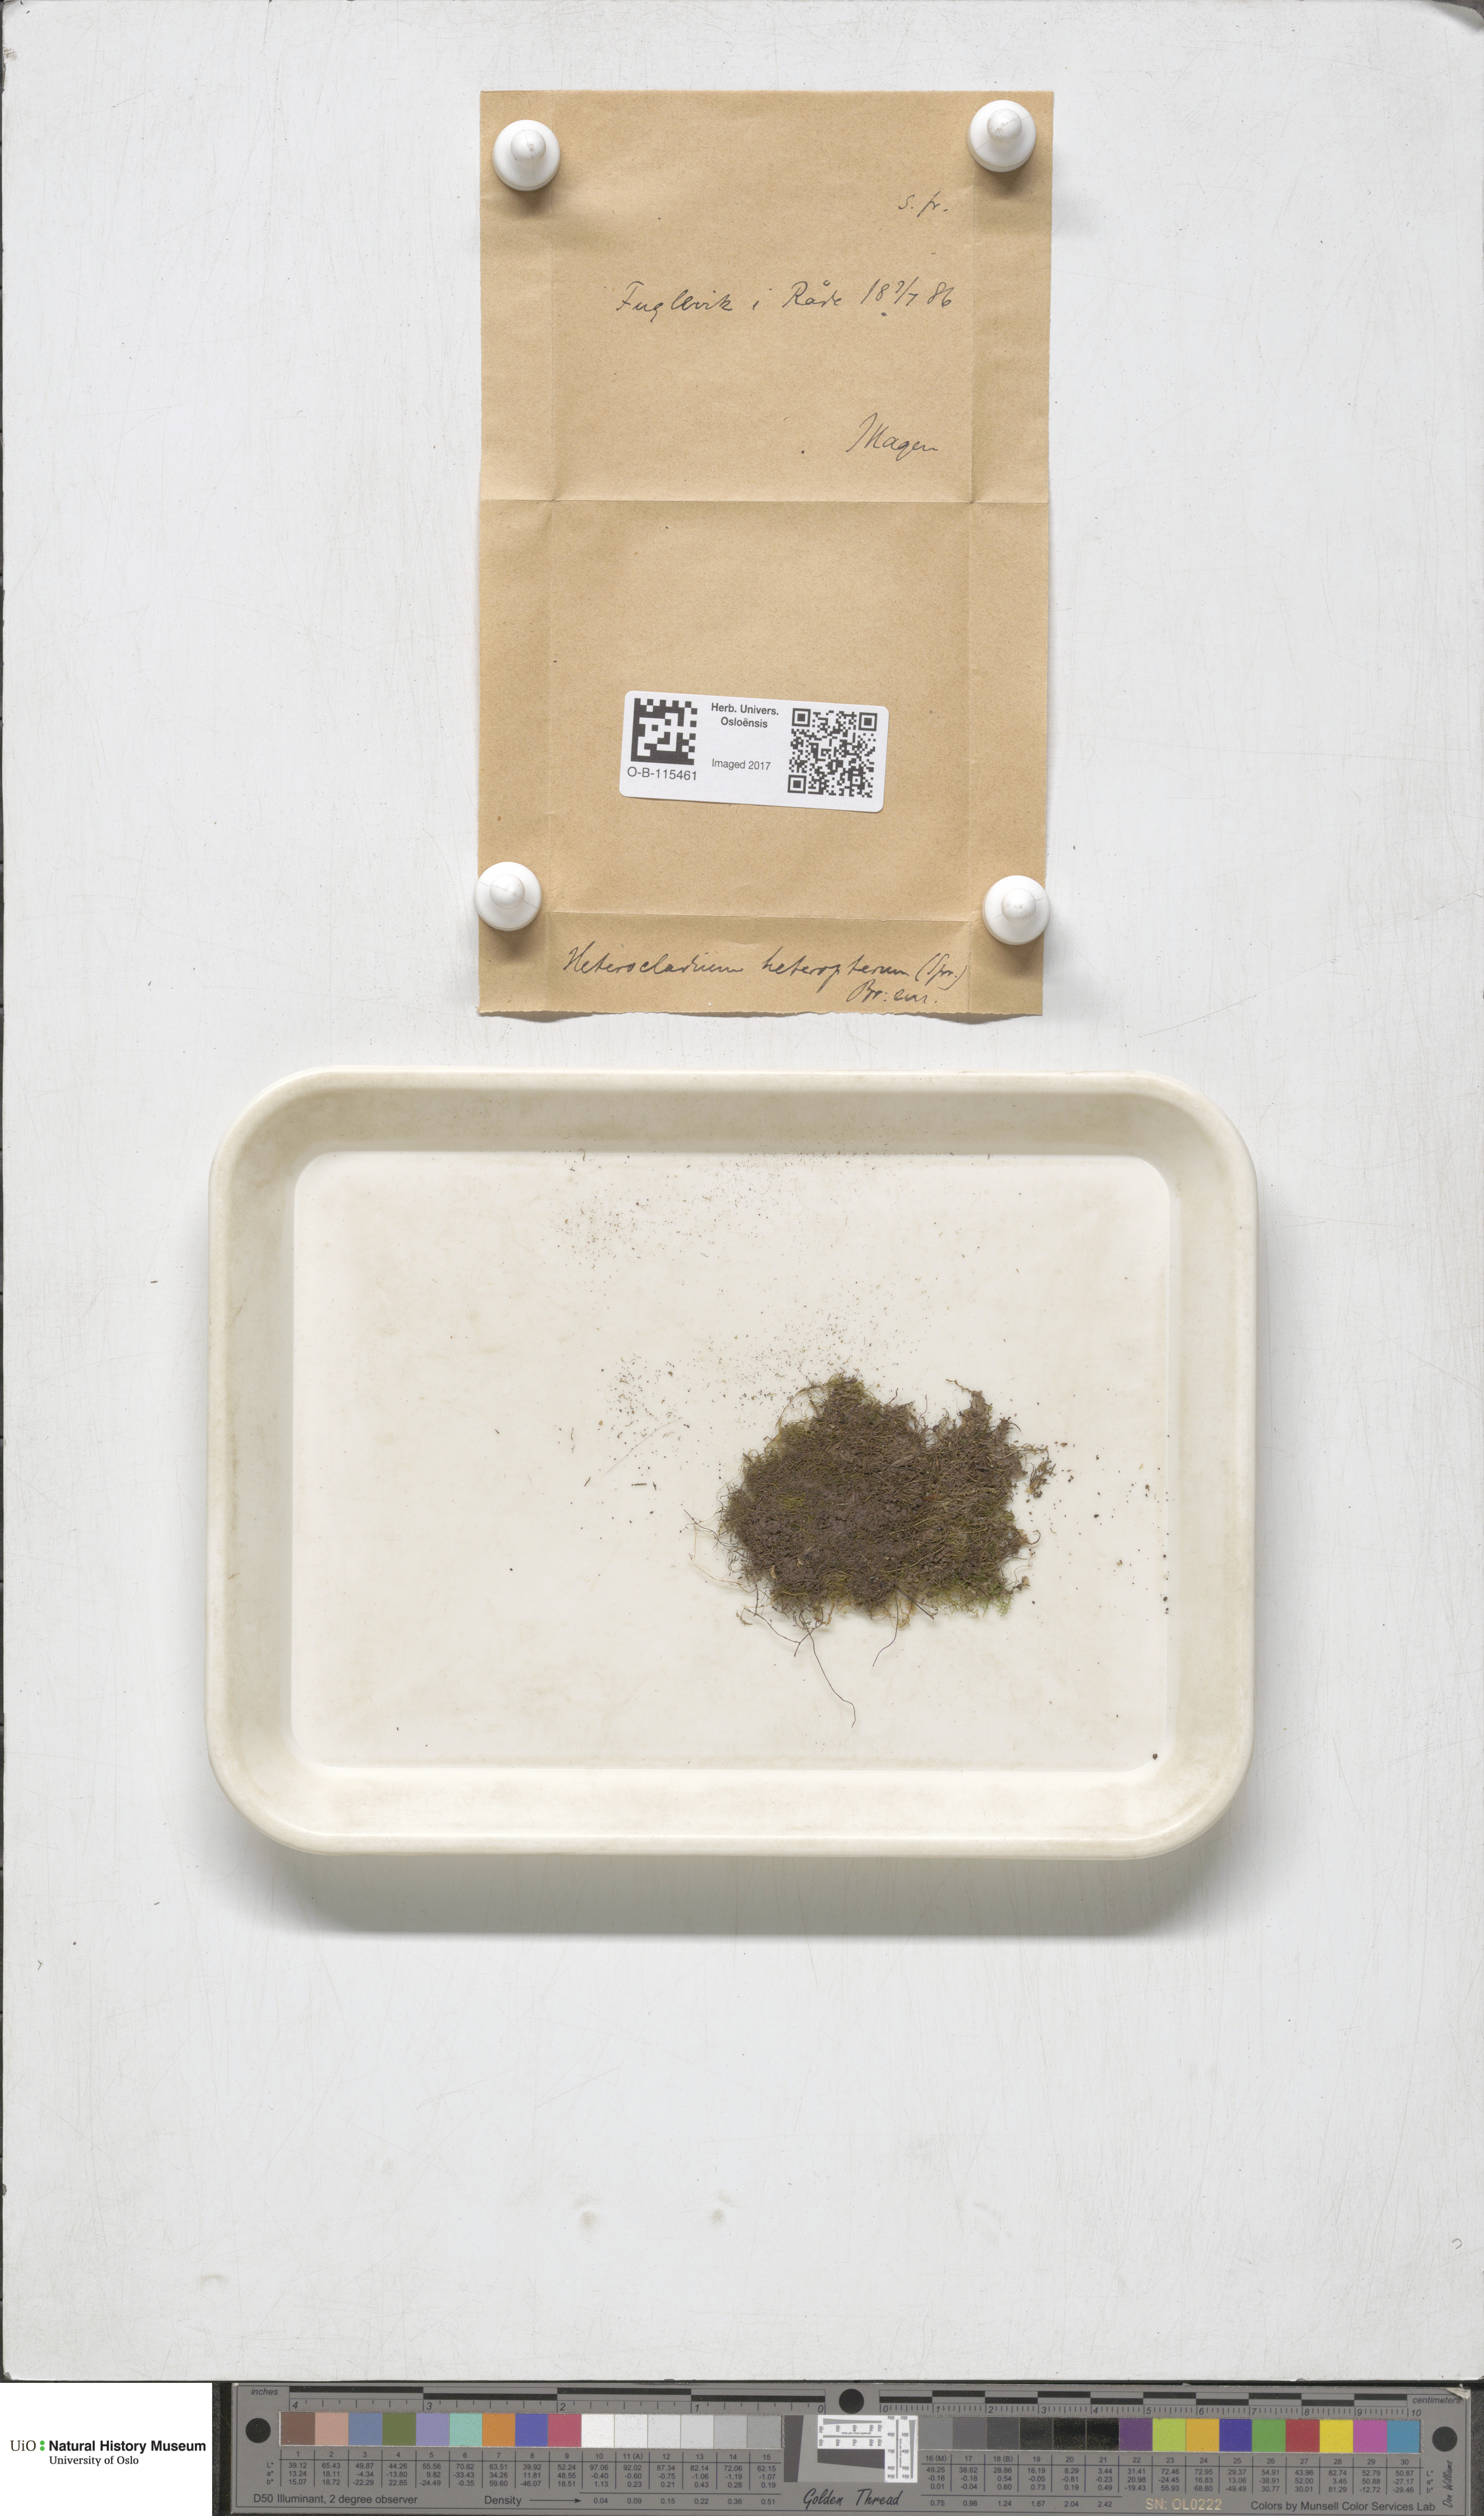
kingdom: Plantae
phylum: Bryophyta
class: Bryopsida
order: Hypnales
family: Lembophyllaceae
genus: Heterocladium
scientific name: Heterocladium heteropterum
